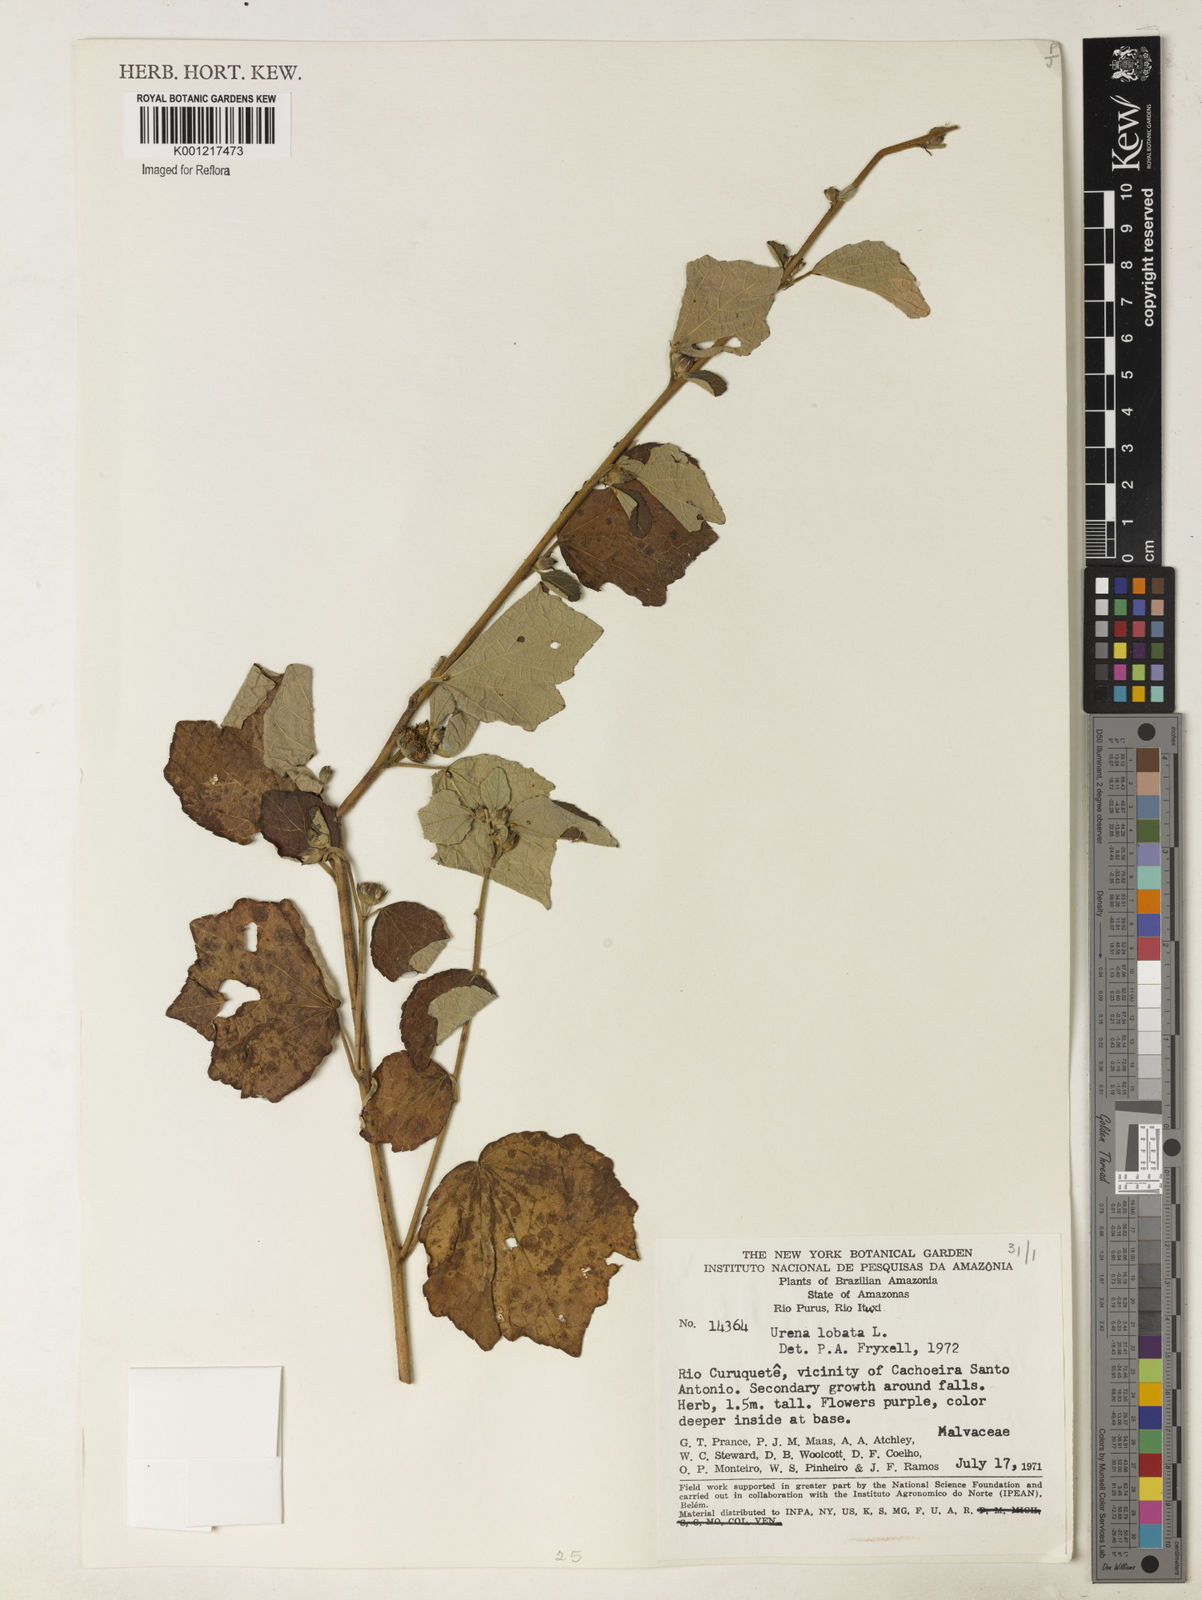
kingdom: Plantae
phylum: Tracheophyta
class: Magnoliopsida
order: Malvales
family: Malvaceae
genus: Urena
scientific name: Urena lobata
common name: Caesarweed
